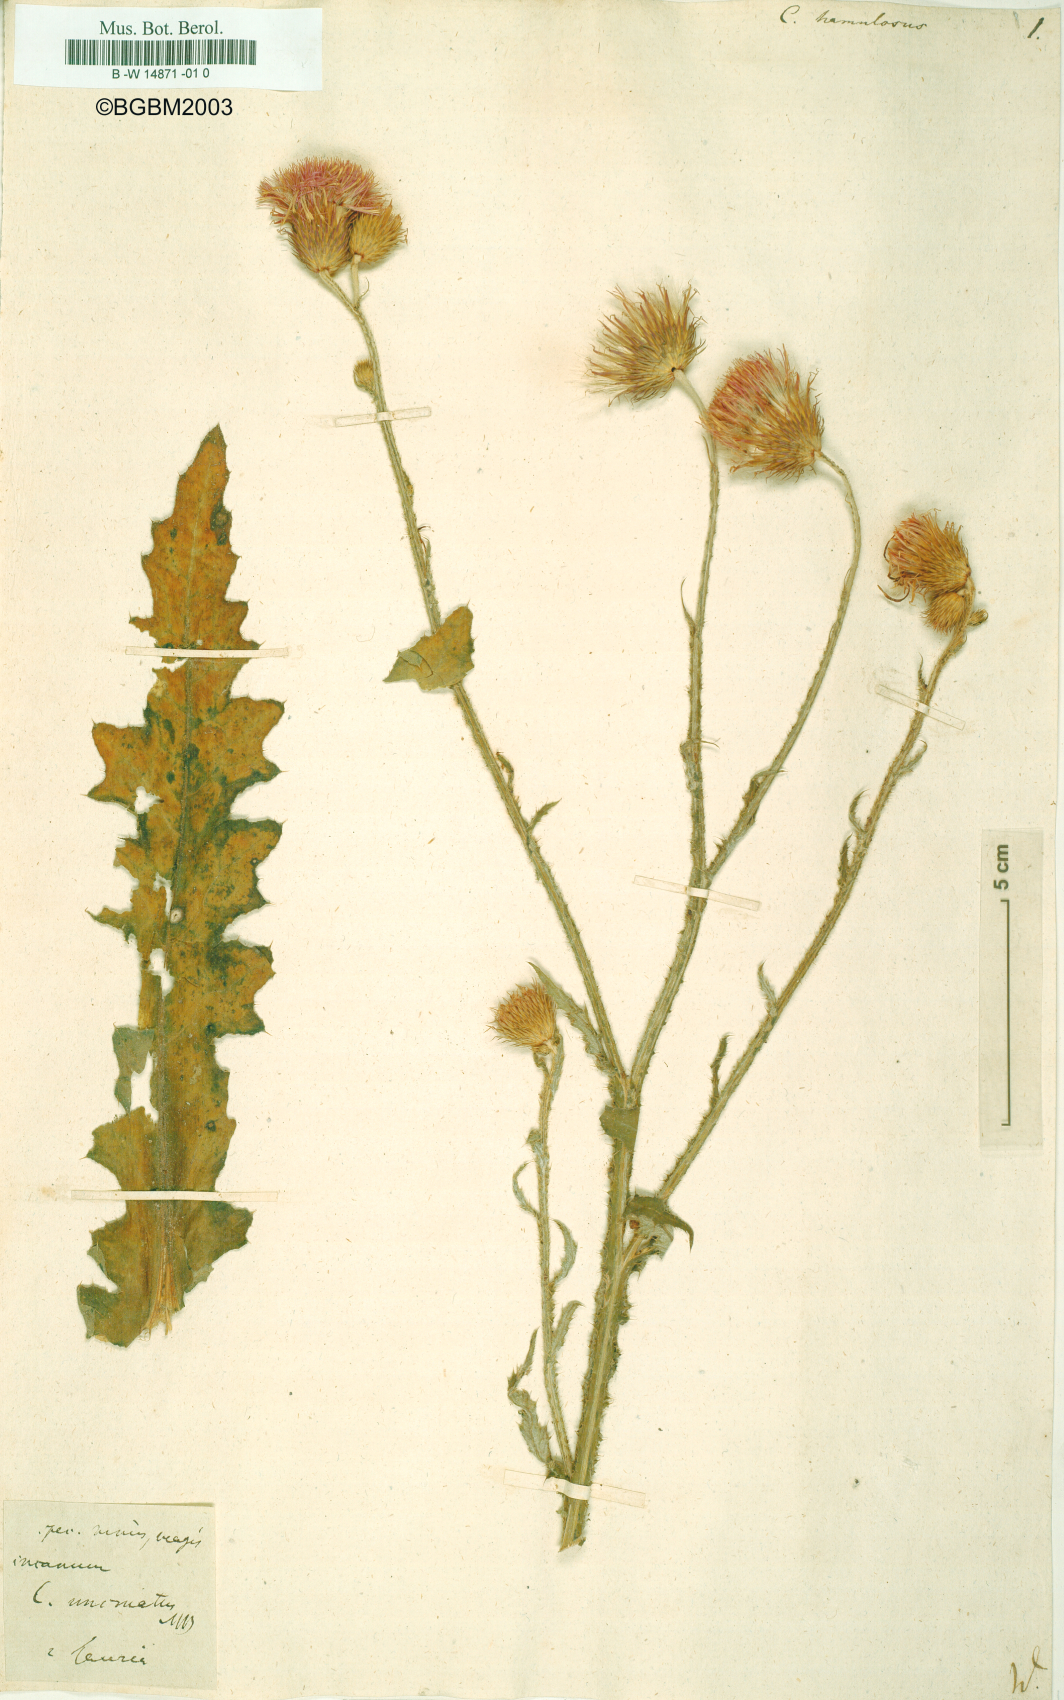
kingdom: Plantae
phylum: Tracheophyta
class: Magnoliopsida
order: Asterales
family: Asteraceae
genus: Carduus
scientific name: Carduus hamulosus
